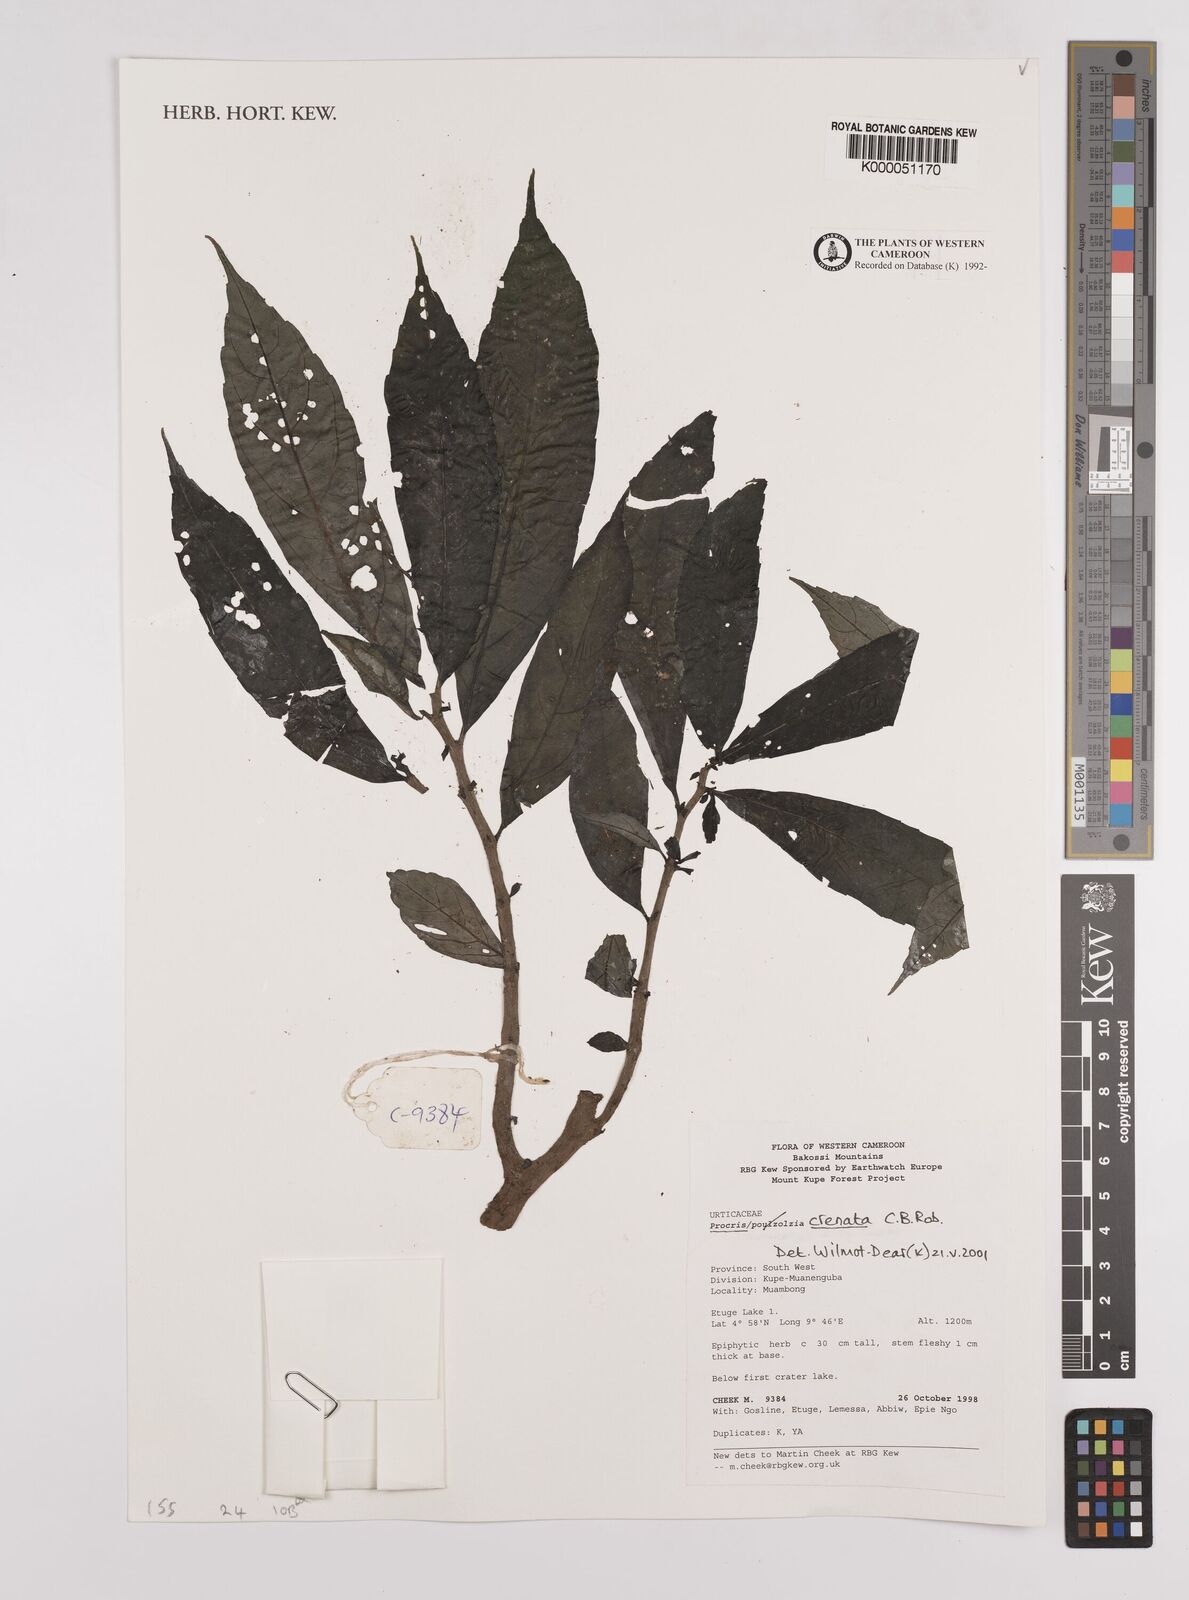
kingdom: Plantae
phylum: Tracheophyta
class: Magnoliopsida
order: Rosales
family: Urticaceae
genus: Procris
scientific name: Procris crenata
